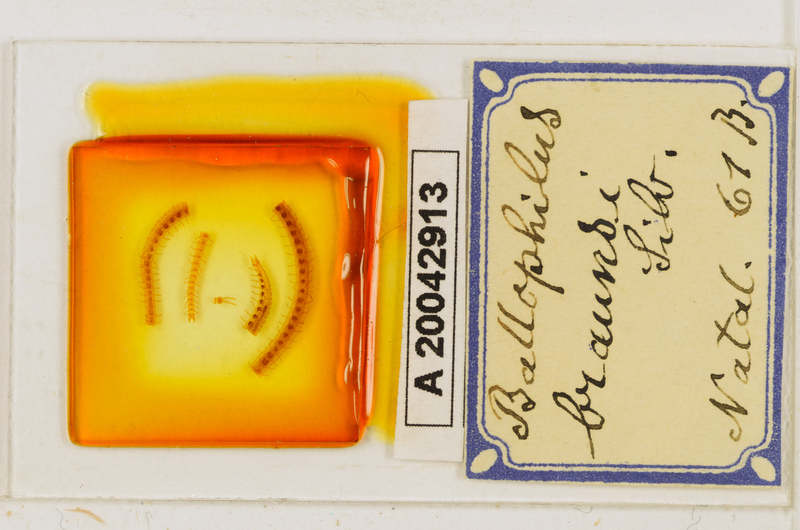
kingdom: Animalia
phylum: Arthropoda
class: Chilopoda
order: Geophilomorpha
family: Ballophilidae
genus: Ballophilus
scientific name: Ballophilus braunsi
